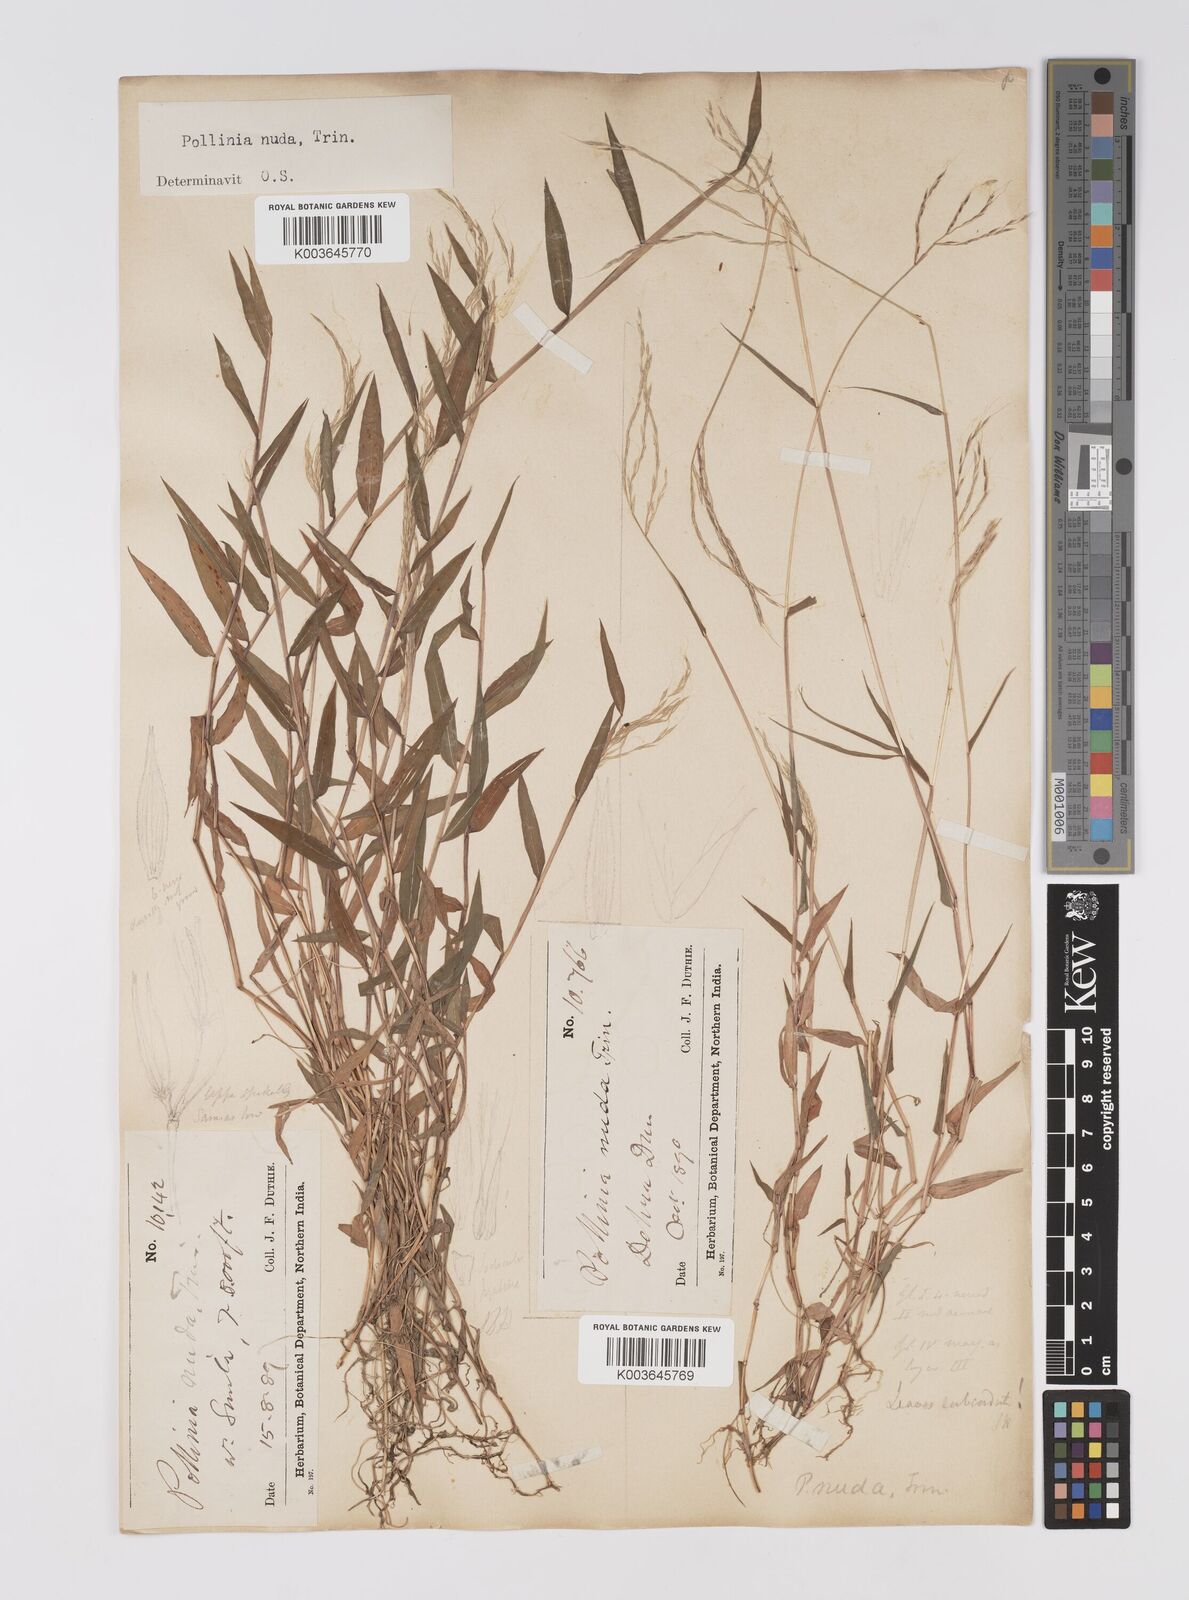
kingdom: Plantae
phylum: Tracheophyta
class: Liliopsida
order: Poales
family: Poaceae
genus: Microstegium
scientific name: Microstegium nudum
